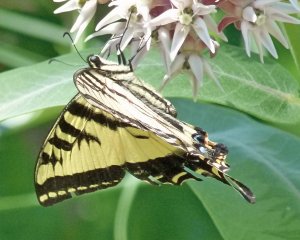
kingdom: Animalia
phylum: Arthropoda
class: Insecta
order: Lepidoptera
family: Papilionidae
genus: Pterourus
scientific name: Pterourus rutulus
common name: Western Tiger Swallowtail
